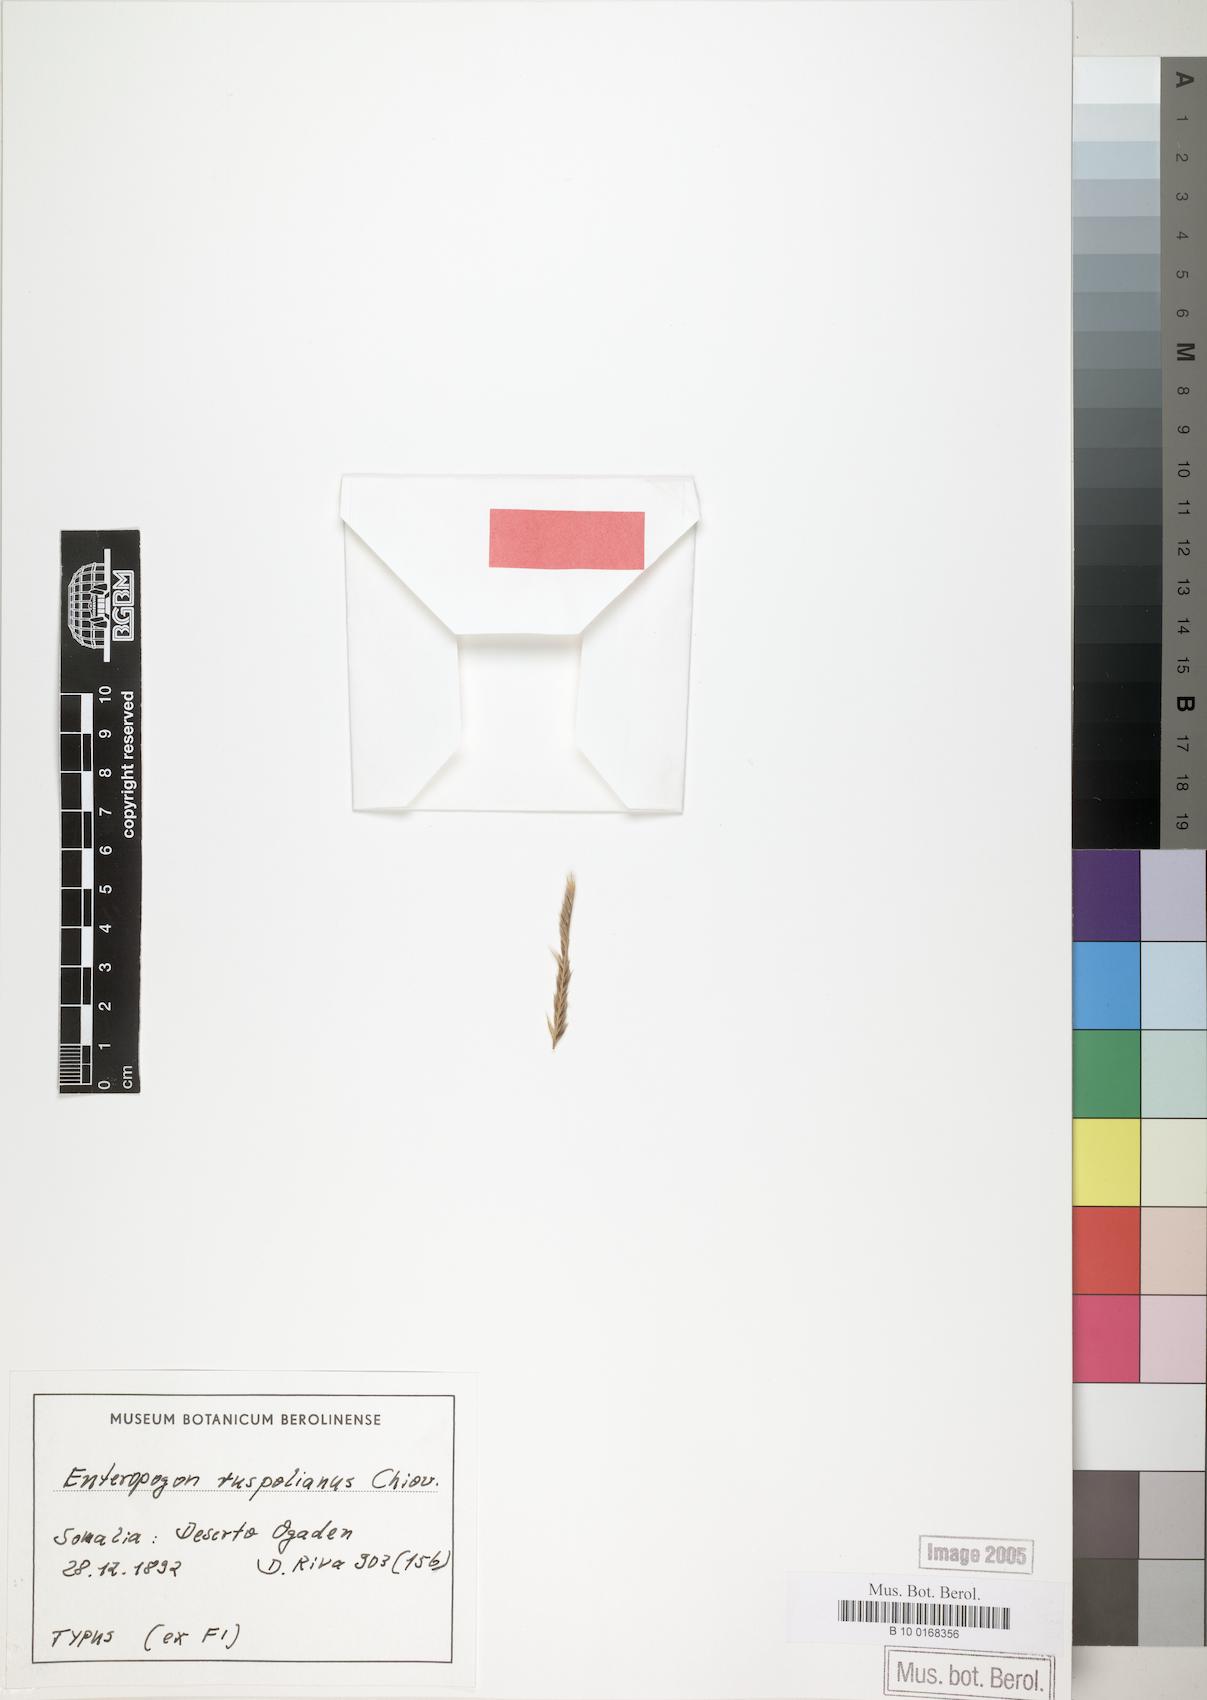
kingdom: Plantae
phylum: Tracheophyta
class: Liliopsida
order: Poales
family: Poaceae
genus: Enteropogon
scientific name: Enteropogon rupestris
